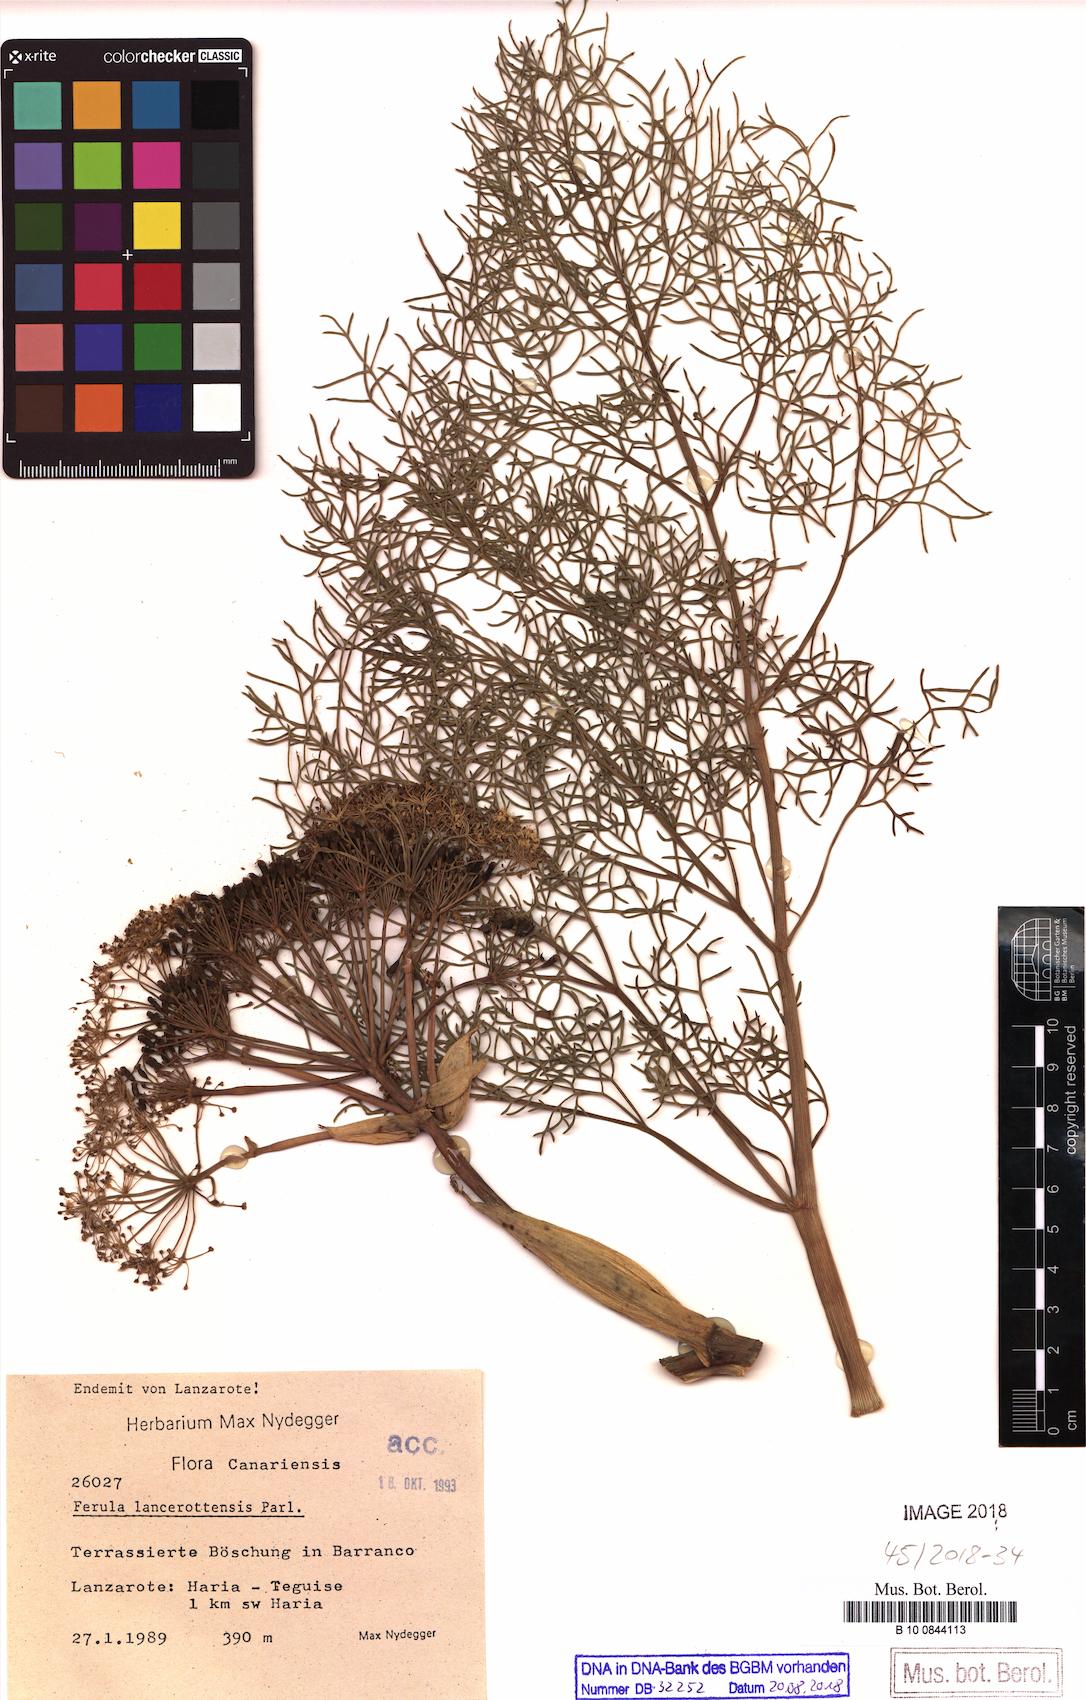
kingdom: Plantae
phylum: Tracheophyta
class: Magnoliopsida
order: Apiales
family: Apiaceae
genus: Ferula
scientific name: Ferula lancerotensis
